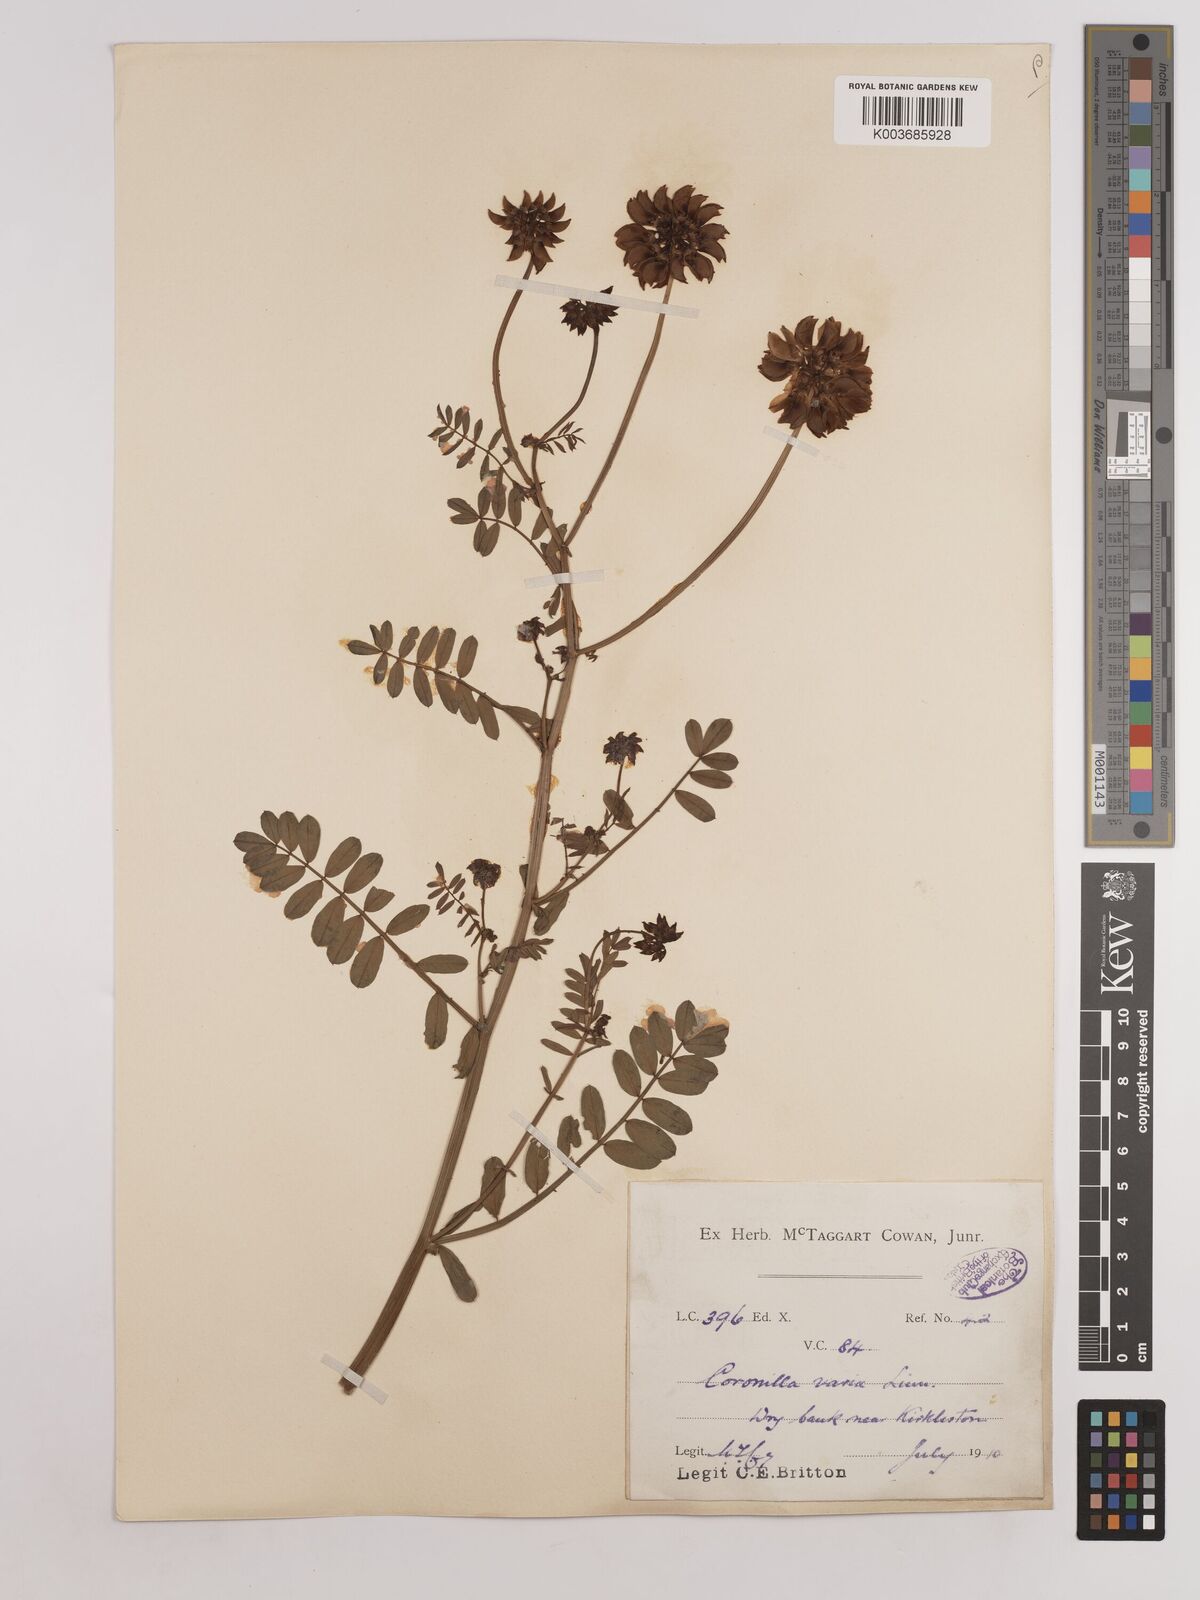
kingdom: Plantae
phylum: Tracheophyta
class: Magnoliopsida
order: Fabales
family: Fabaceae
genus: Coronilla
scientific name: Coronilla varia
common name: Crownvetch
